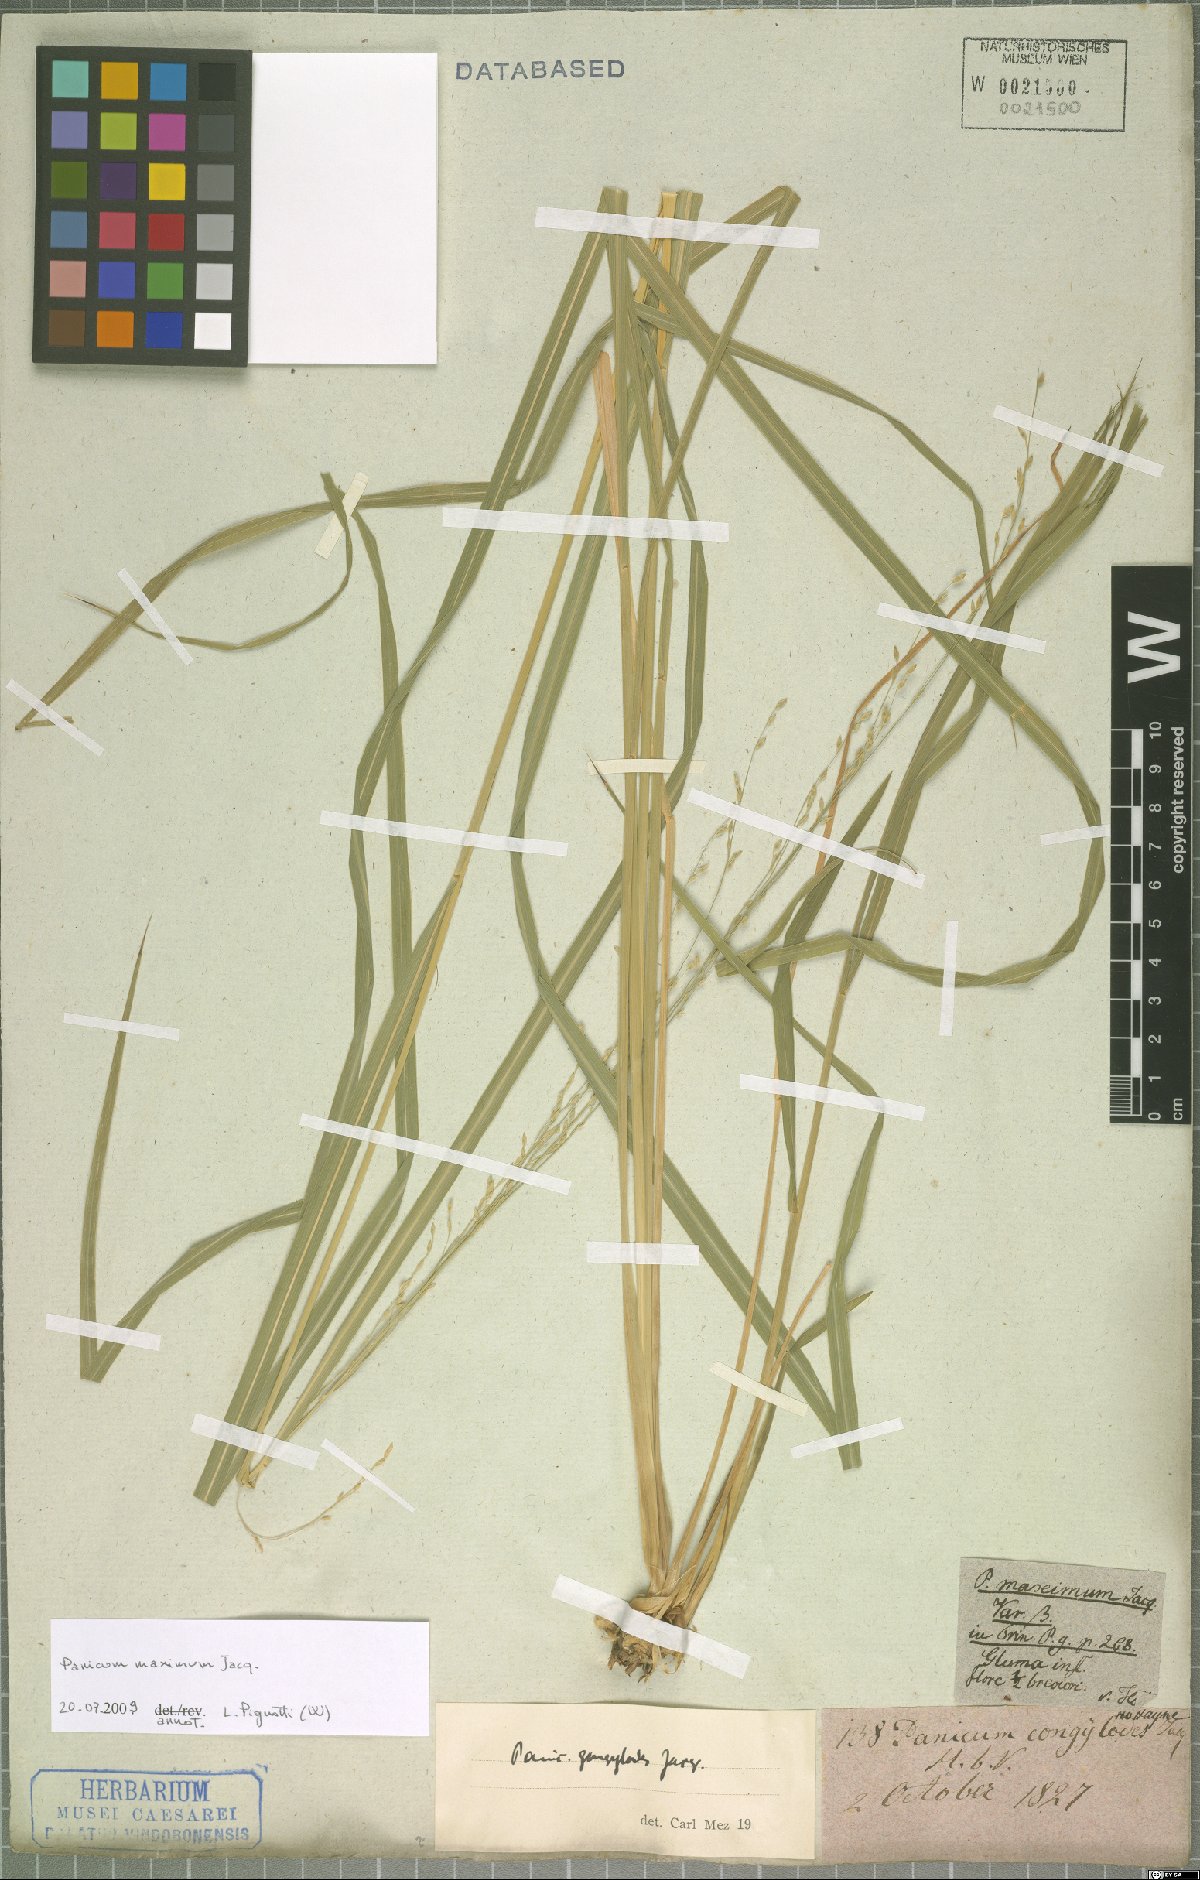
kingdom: Plantae
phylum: Tracheophyta
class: Liliopsida
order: Poales
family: Poaceae
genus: Megathyrsus
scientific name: Megathyrsus maximus
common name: Guineagrass
